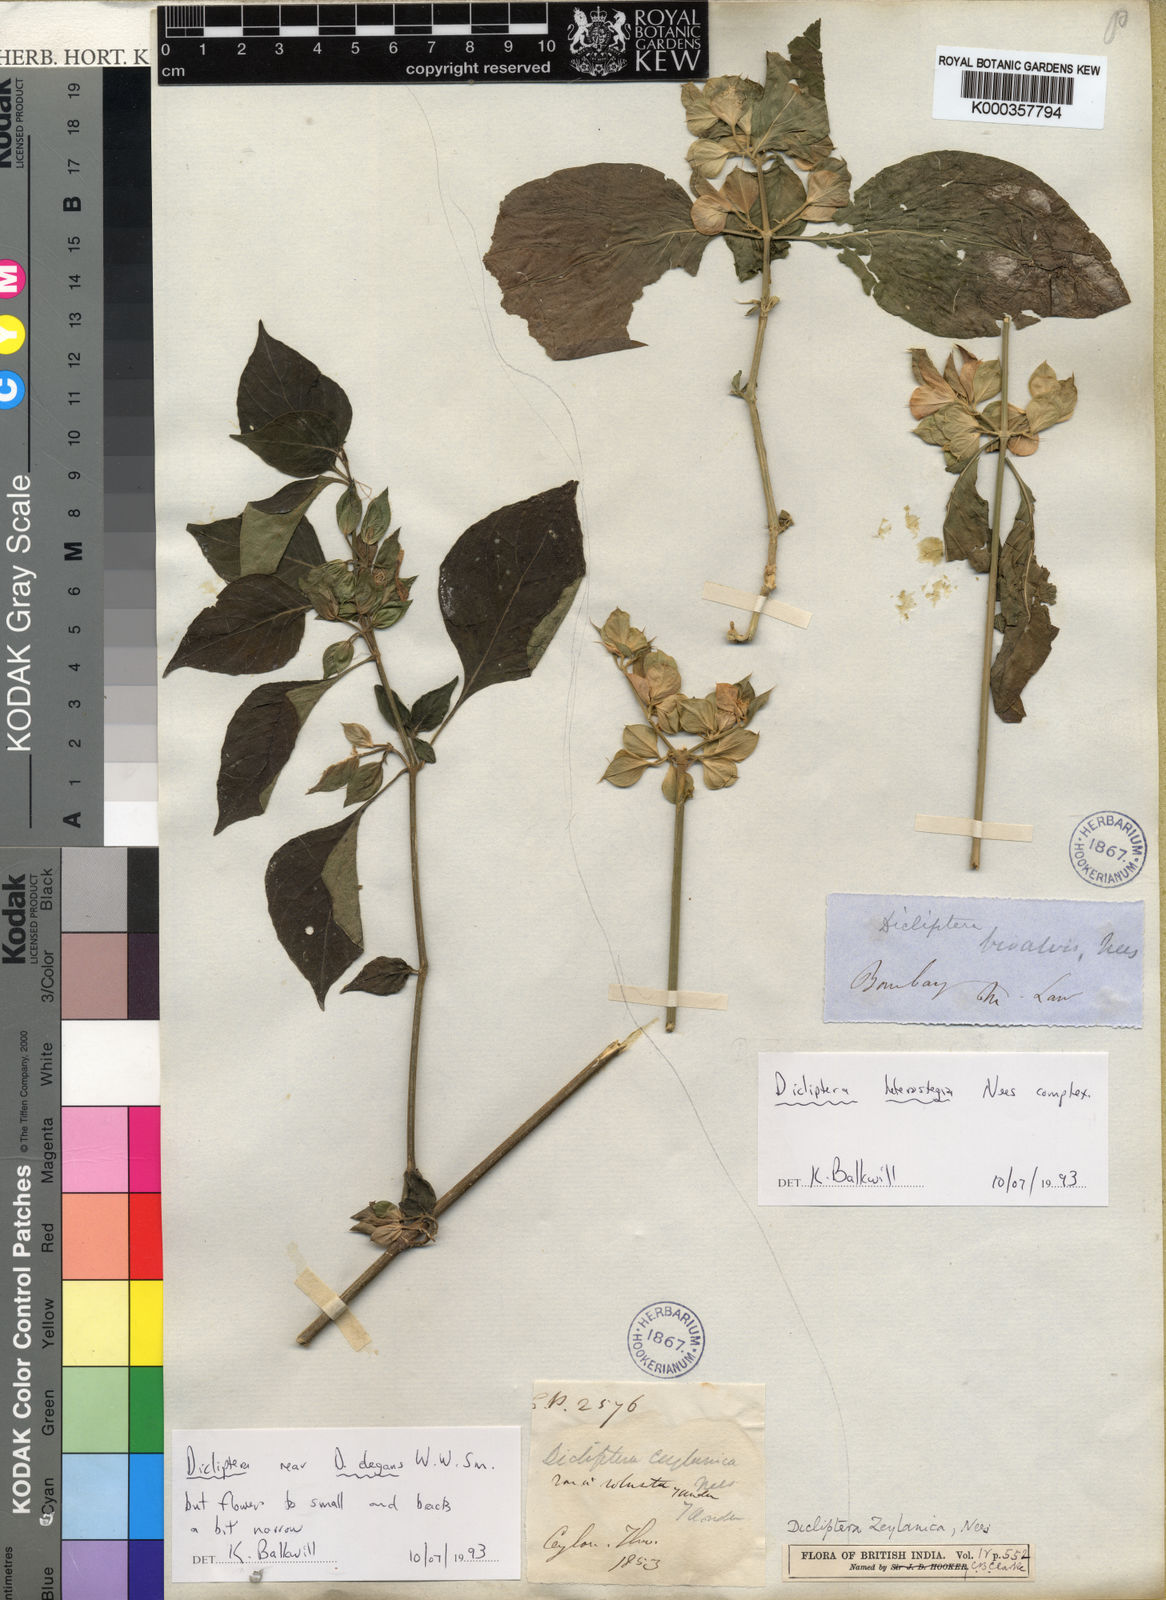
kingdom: Plantae
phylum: Tracheophyta
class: Magnoliopsida
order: Lamiales
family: Acanthaceae
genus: Dicliptera
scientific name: Dicliptera heterostegia
